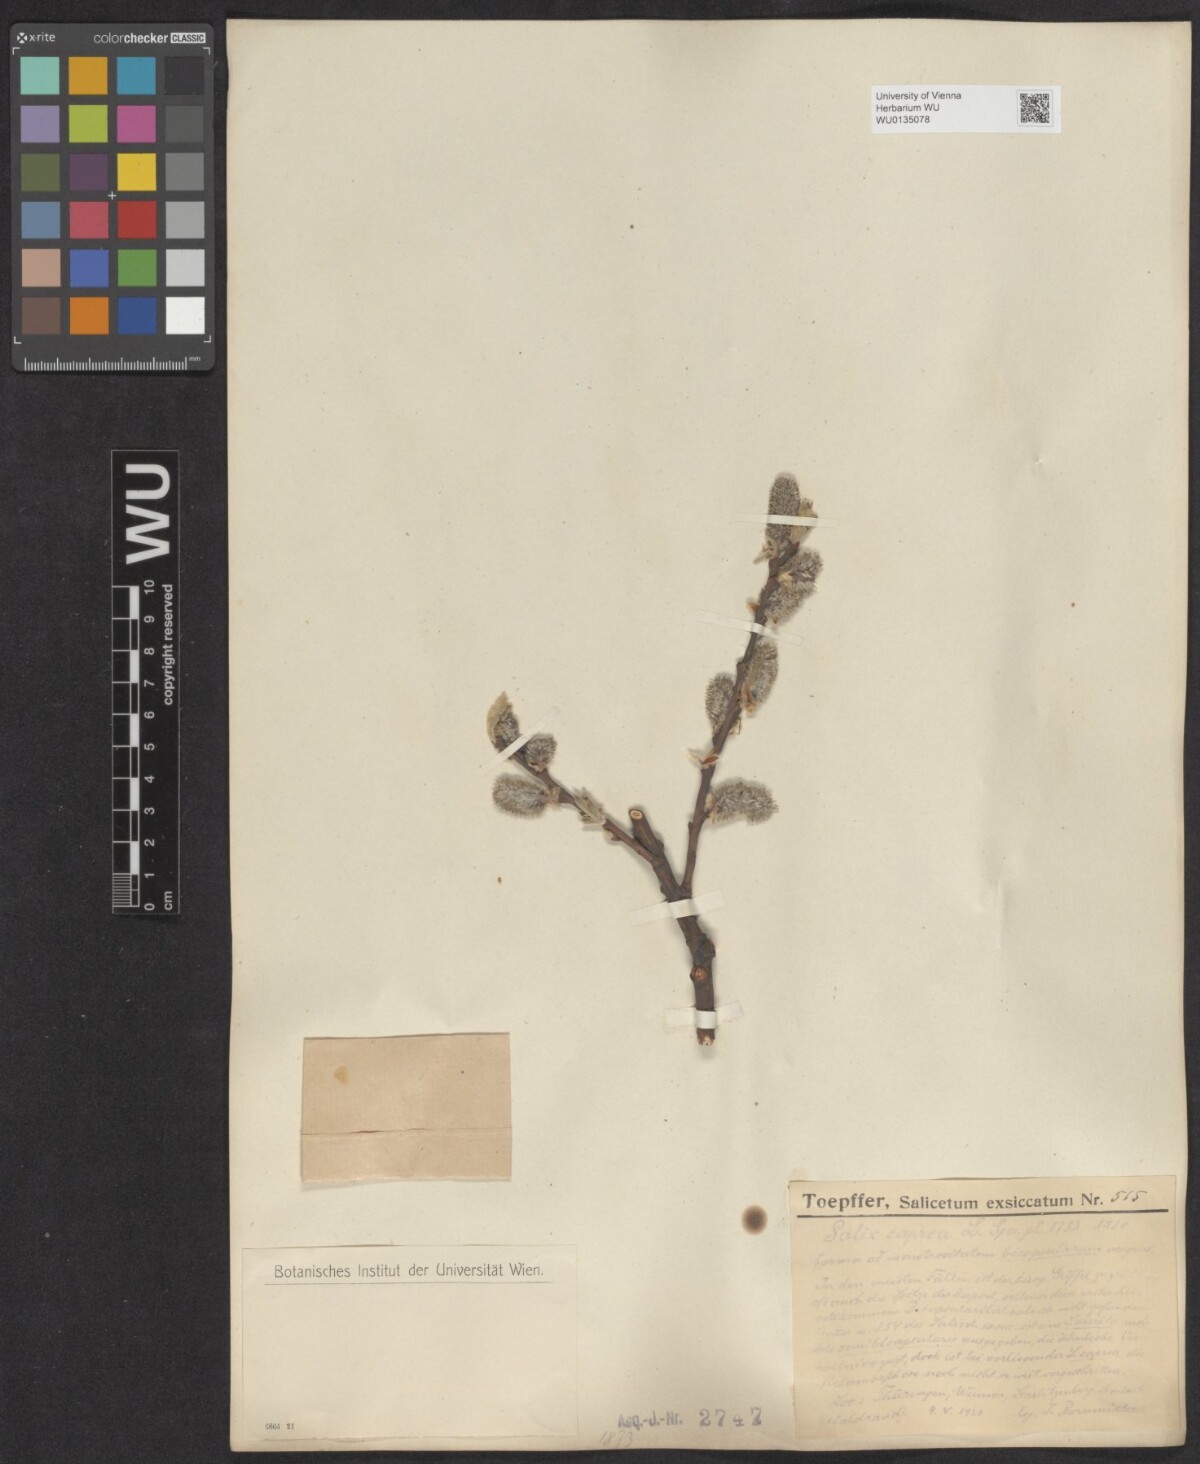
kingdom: Plantae
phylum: Tracheophyta
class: Magnoliopsida
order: Malpighiales
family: Salicaceae
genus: Salix
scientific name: Salix caprea
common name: Goat willow
